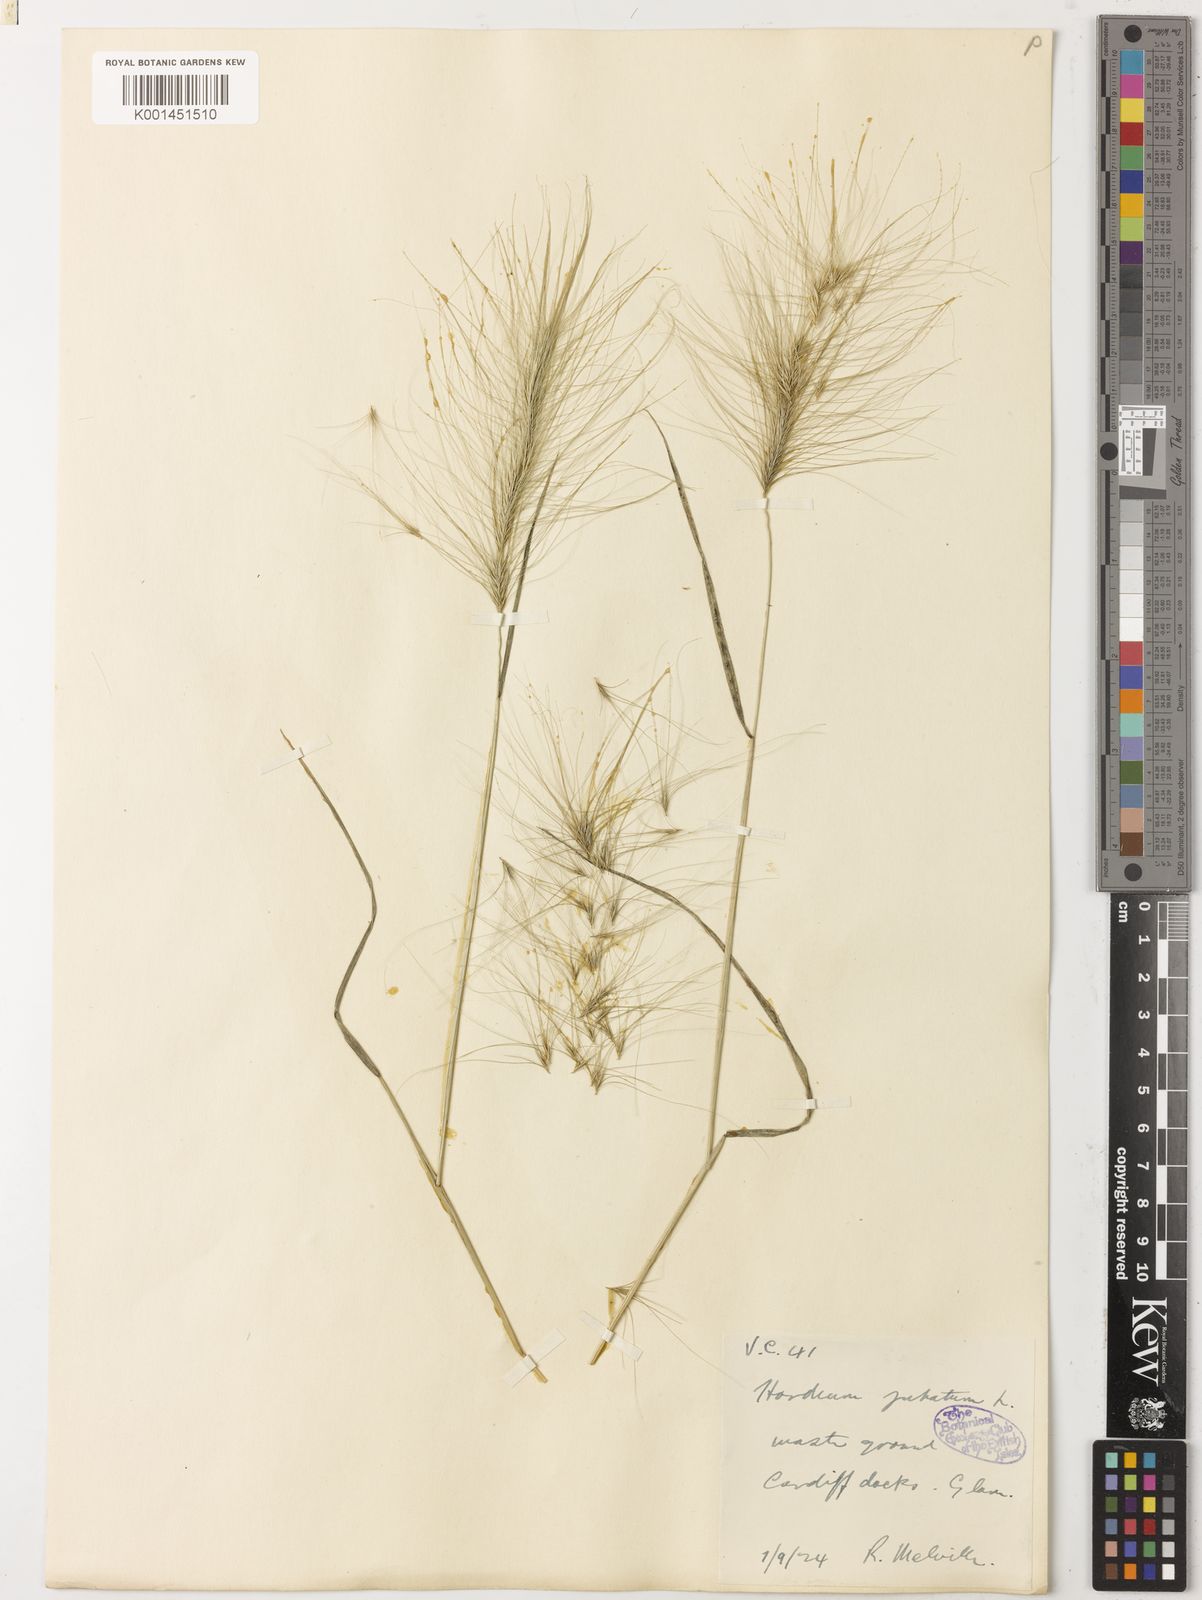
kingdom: Plantae
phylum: Tracheophyta
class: Liliopsida
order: Poales
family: Poaceae
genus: Hordeum
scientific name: Hordeum jubatum
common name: Foxtail barley
